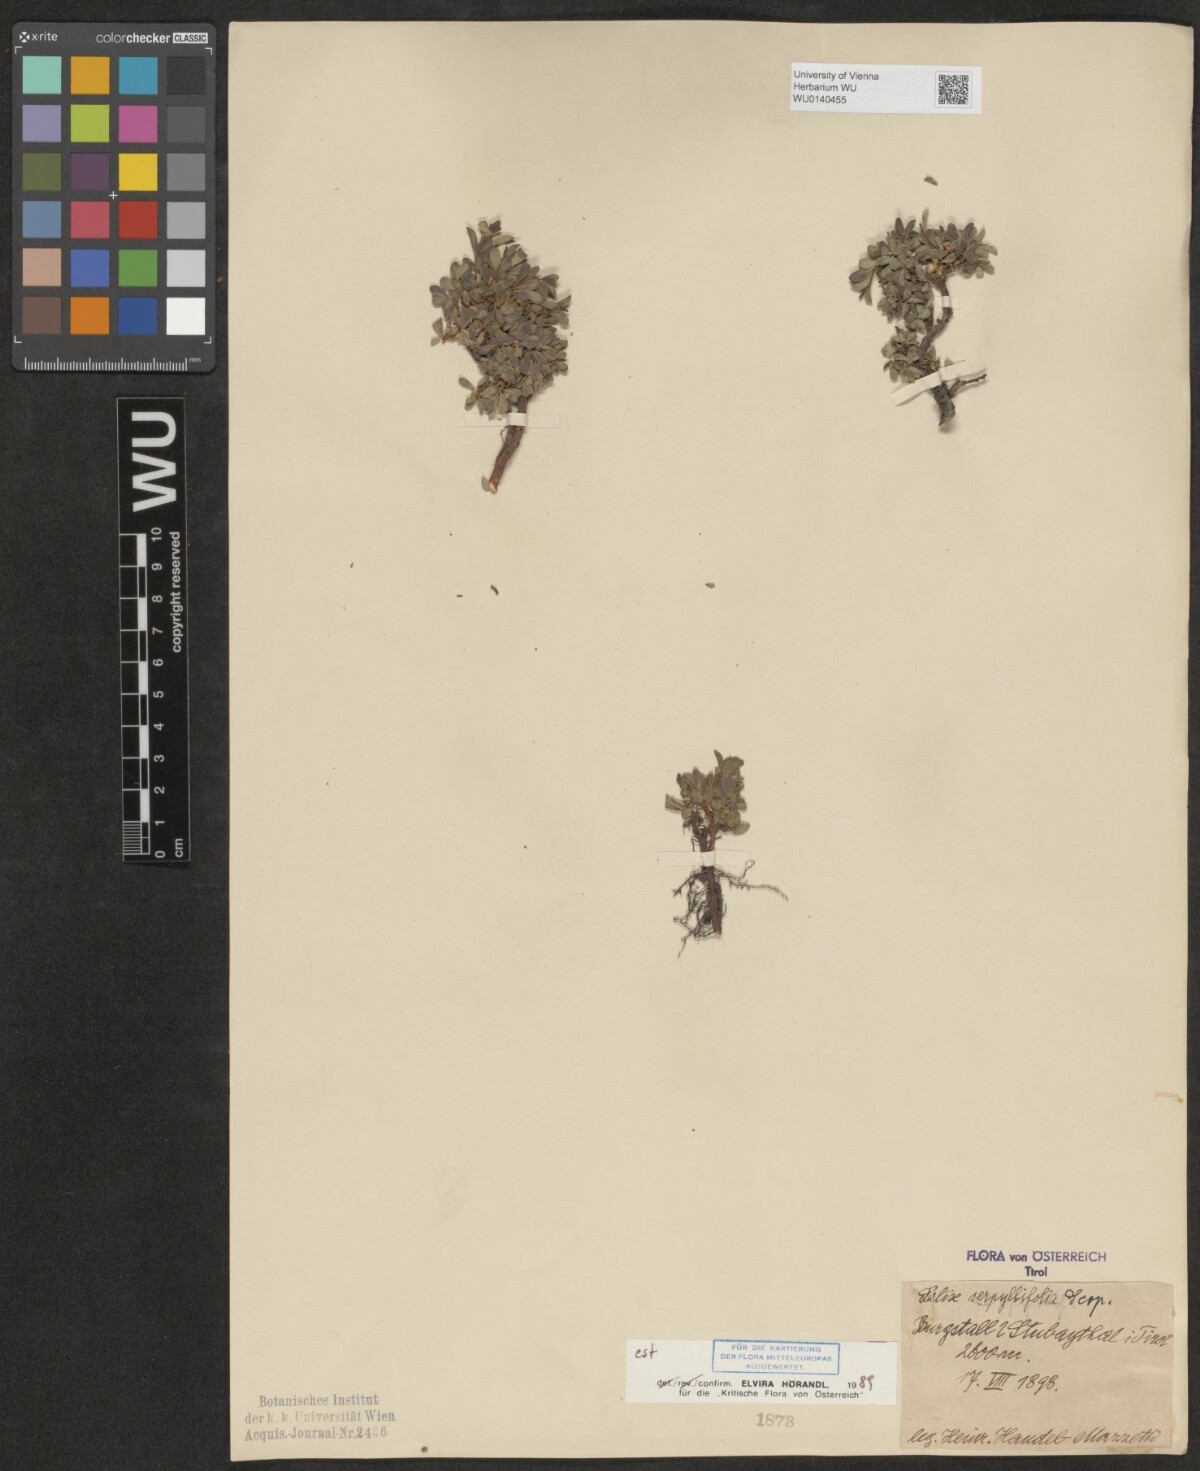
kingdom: Plantae
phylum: Tracheophyta
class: Magnoliopsida
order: Malpighiales
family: Salicaceae
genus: Salix
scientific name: Salix serpillifolia
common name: Thyme-leaf willow
